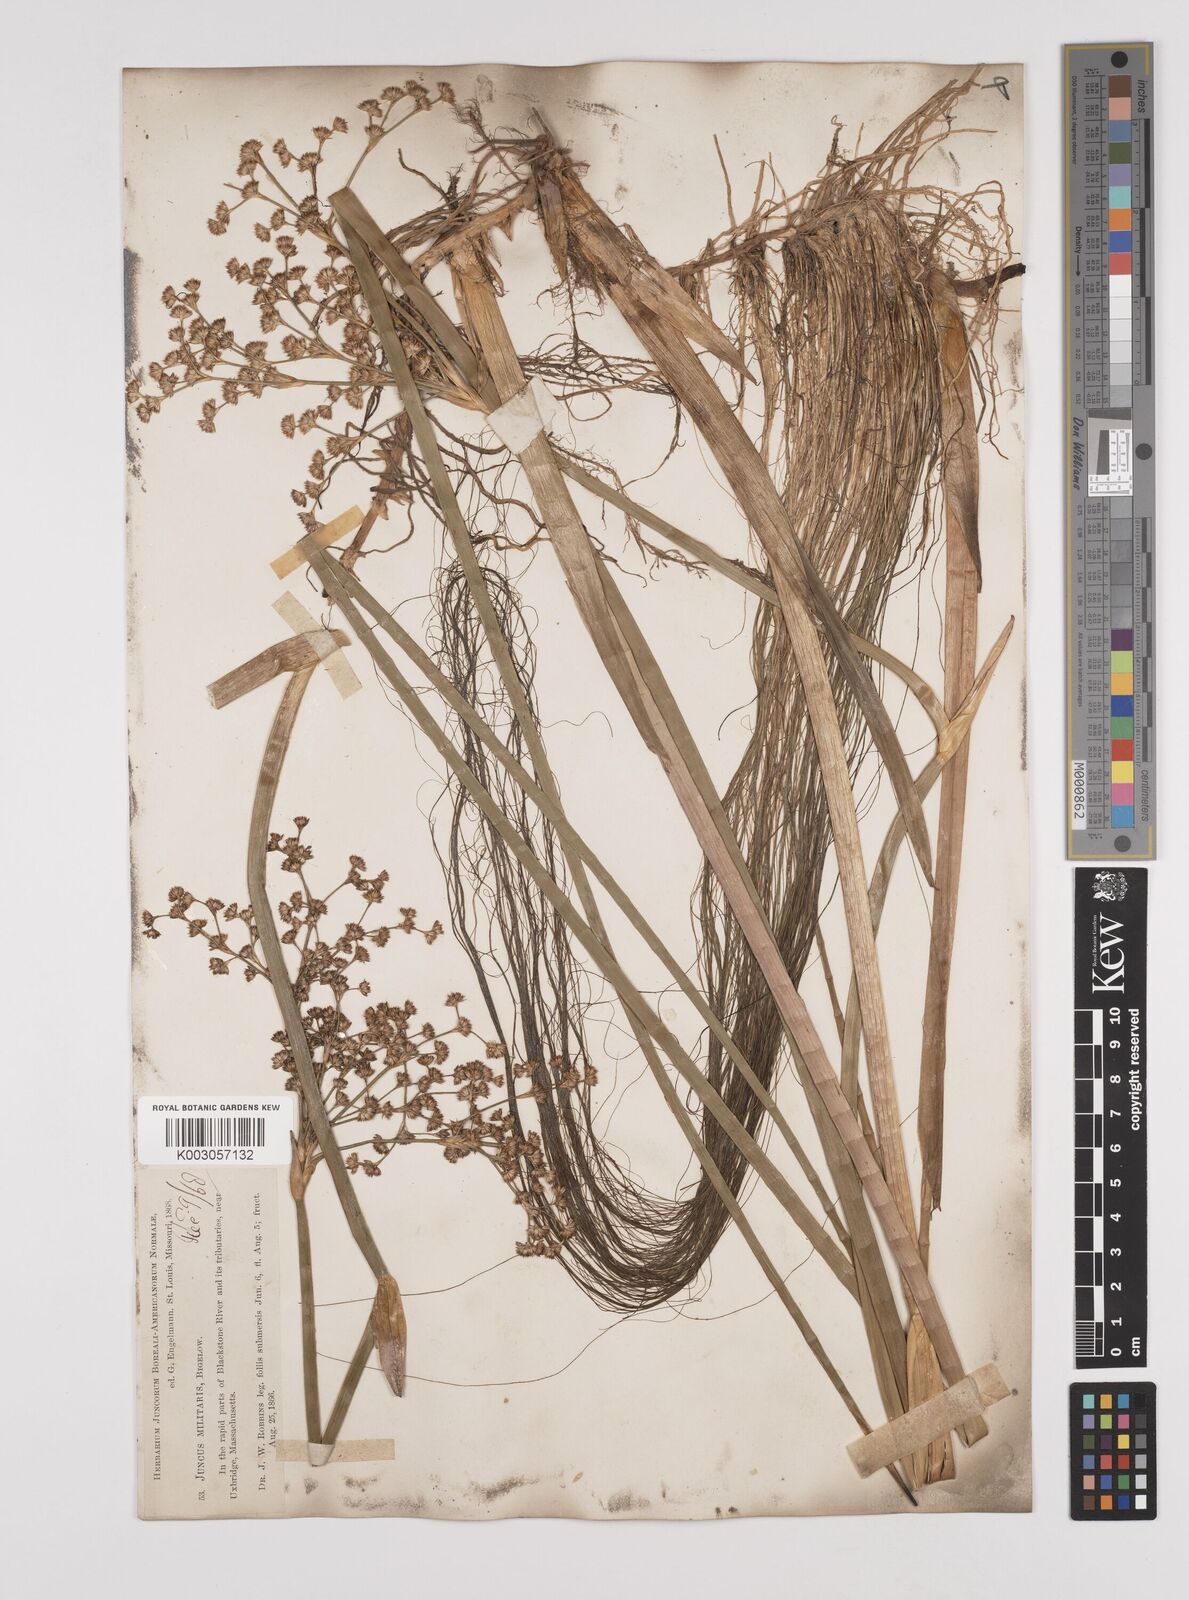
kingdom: Plantae
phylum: Tracheophyta
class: Liliopsida
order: Poales
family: Juncaceae
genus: Juncus
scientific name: Juncus militaris
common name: Bayonet rush
